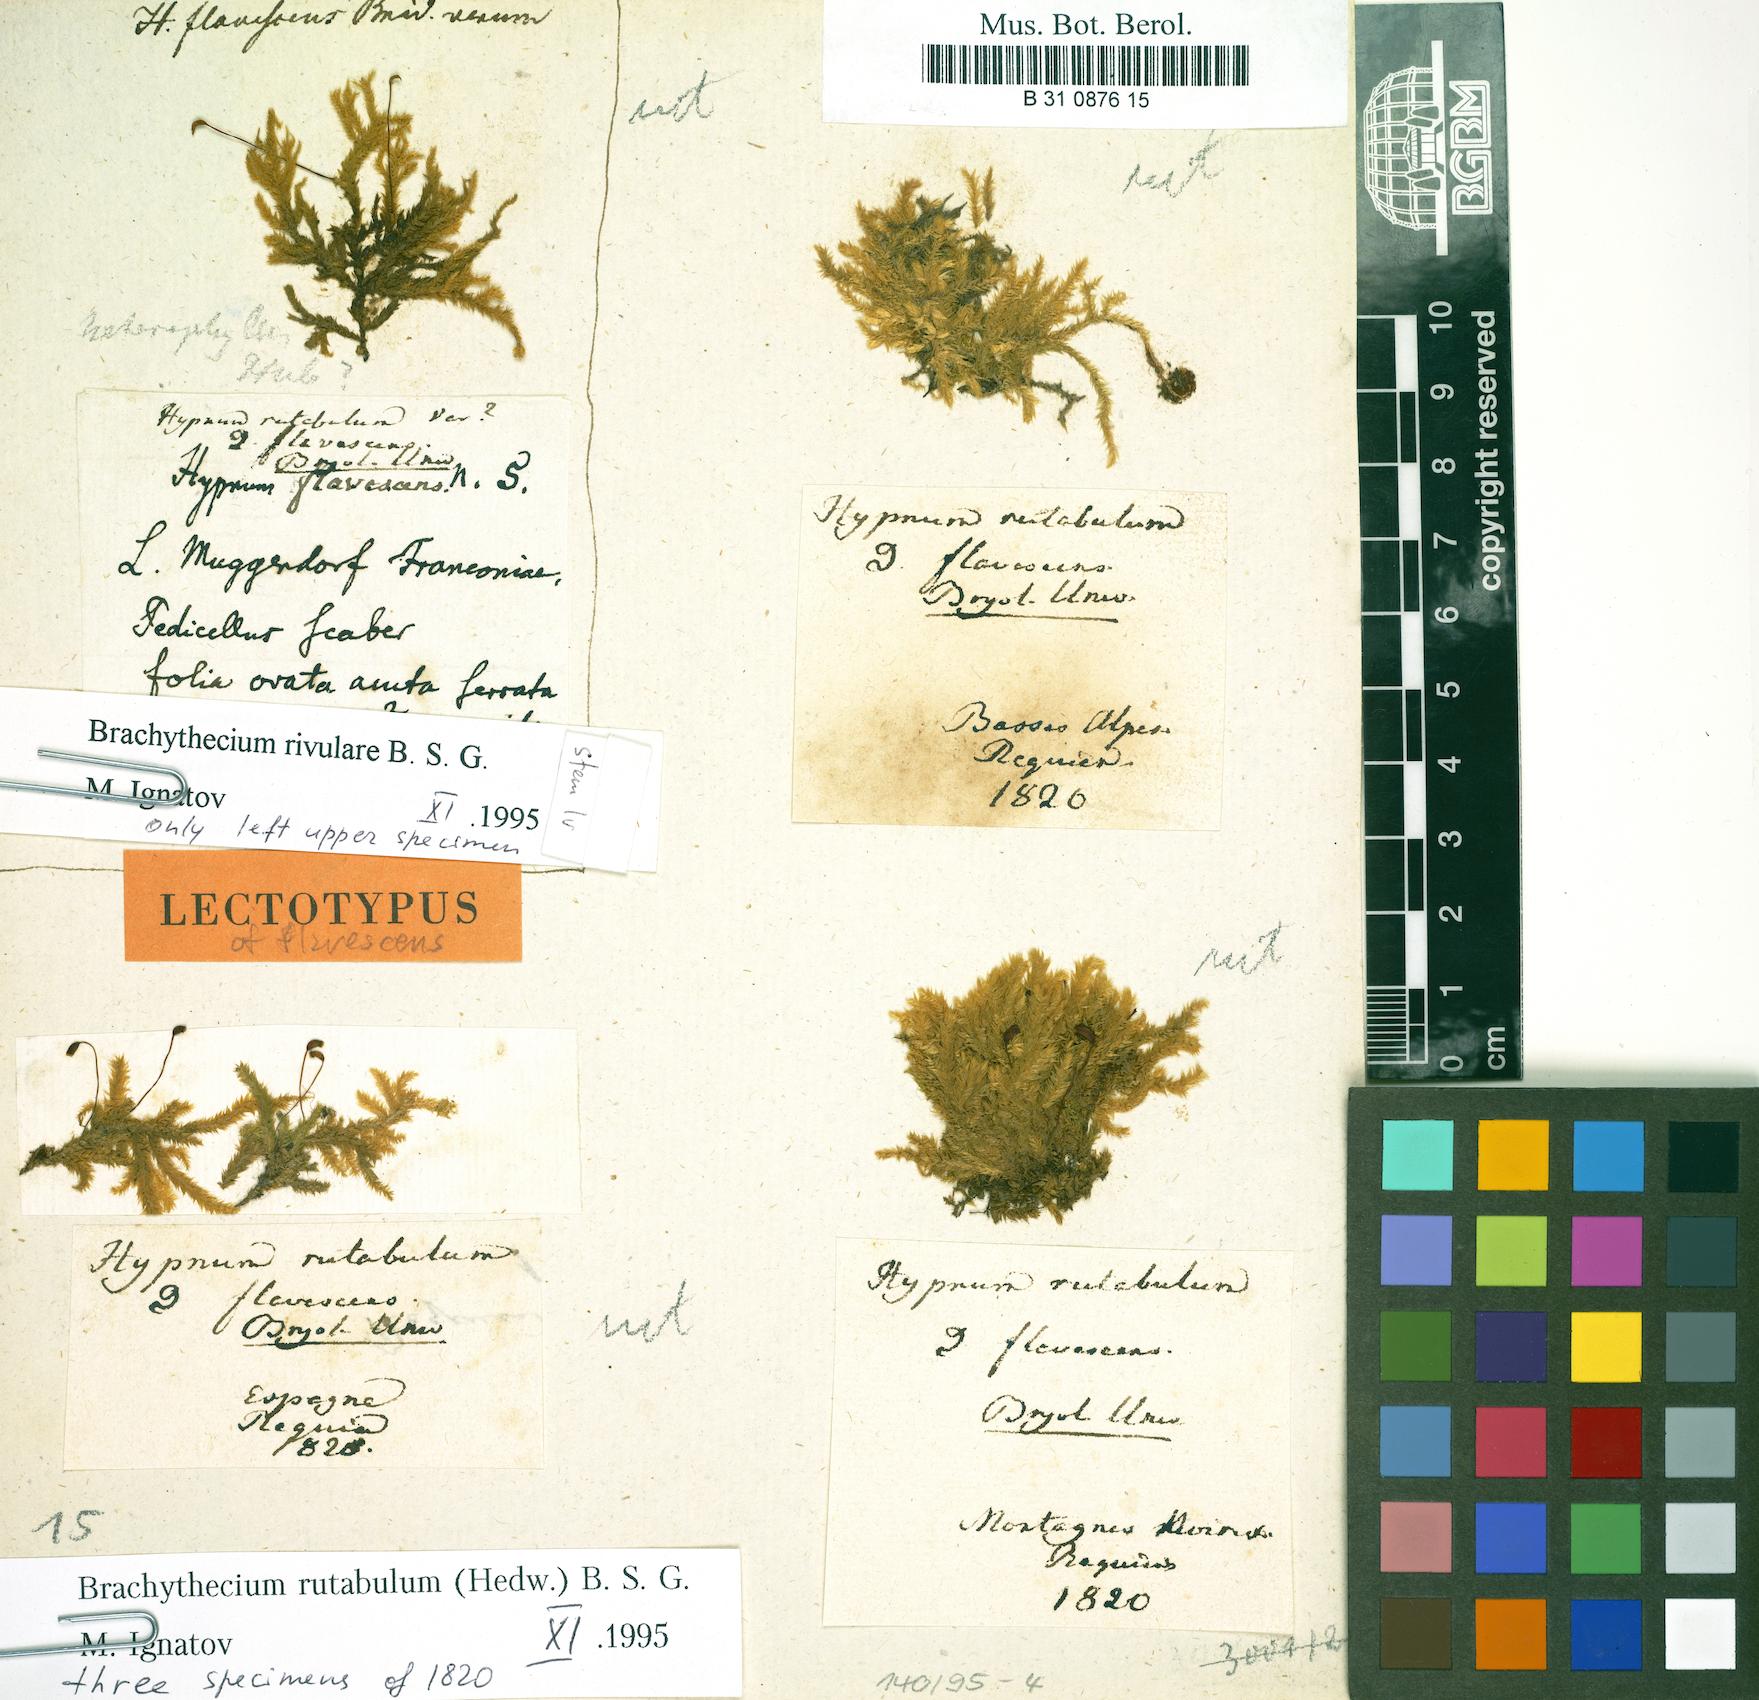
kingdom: Plantae
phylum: Bryophyta
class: Bryopsida
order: Hypnales
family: Brachytheciaceae
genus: Brachythecium
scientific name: Brachythecium rutabulum
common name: Rough-stalked feather-moss
